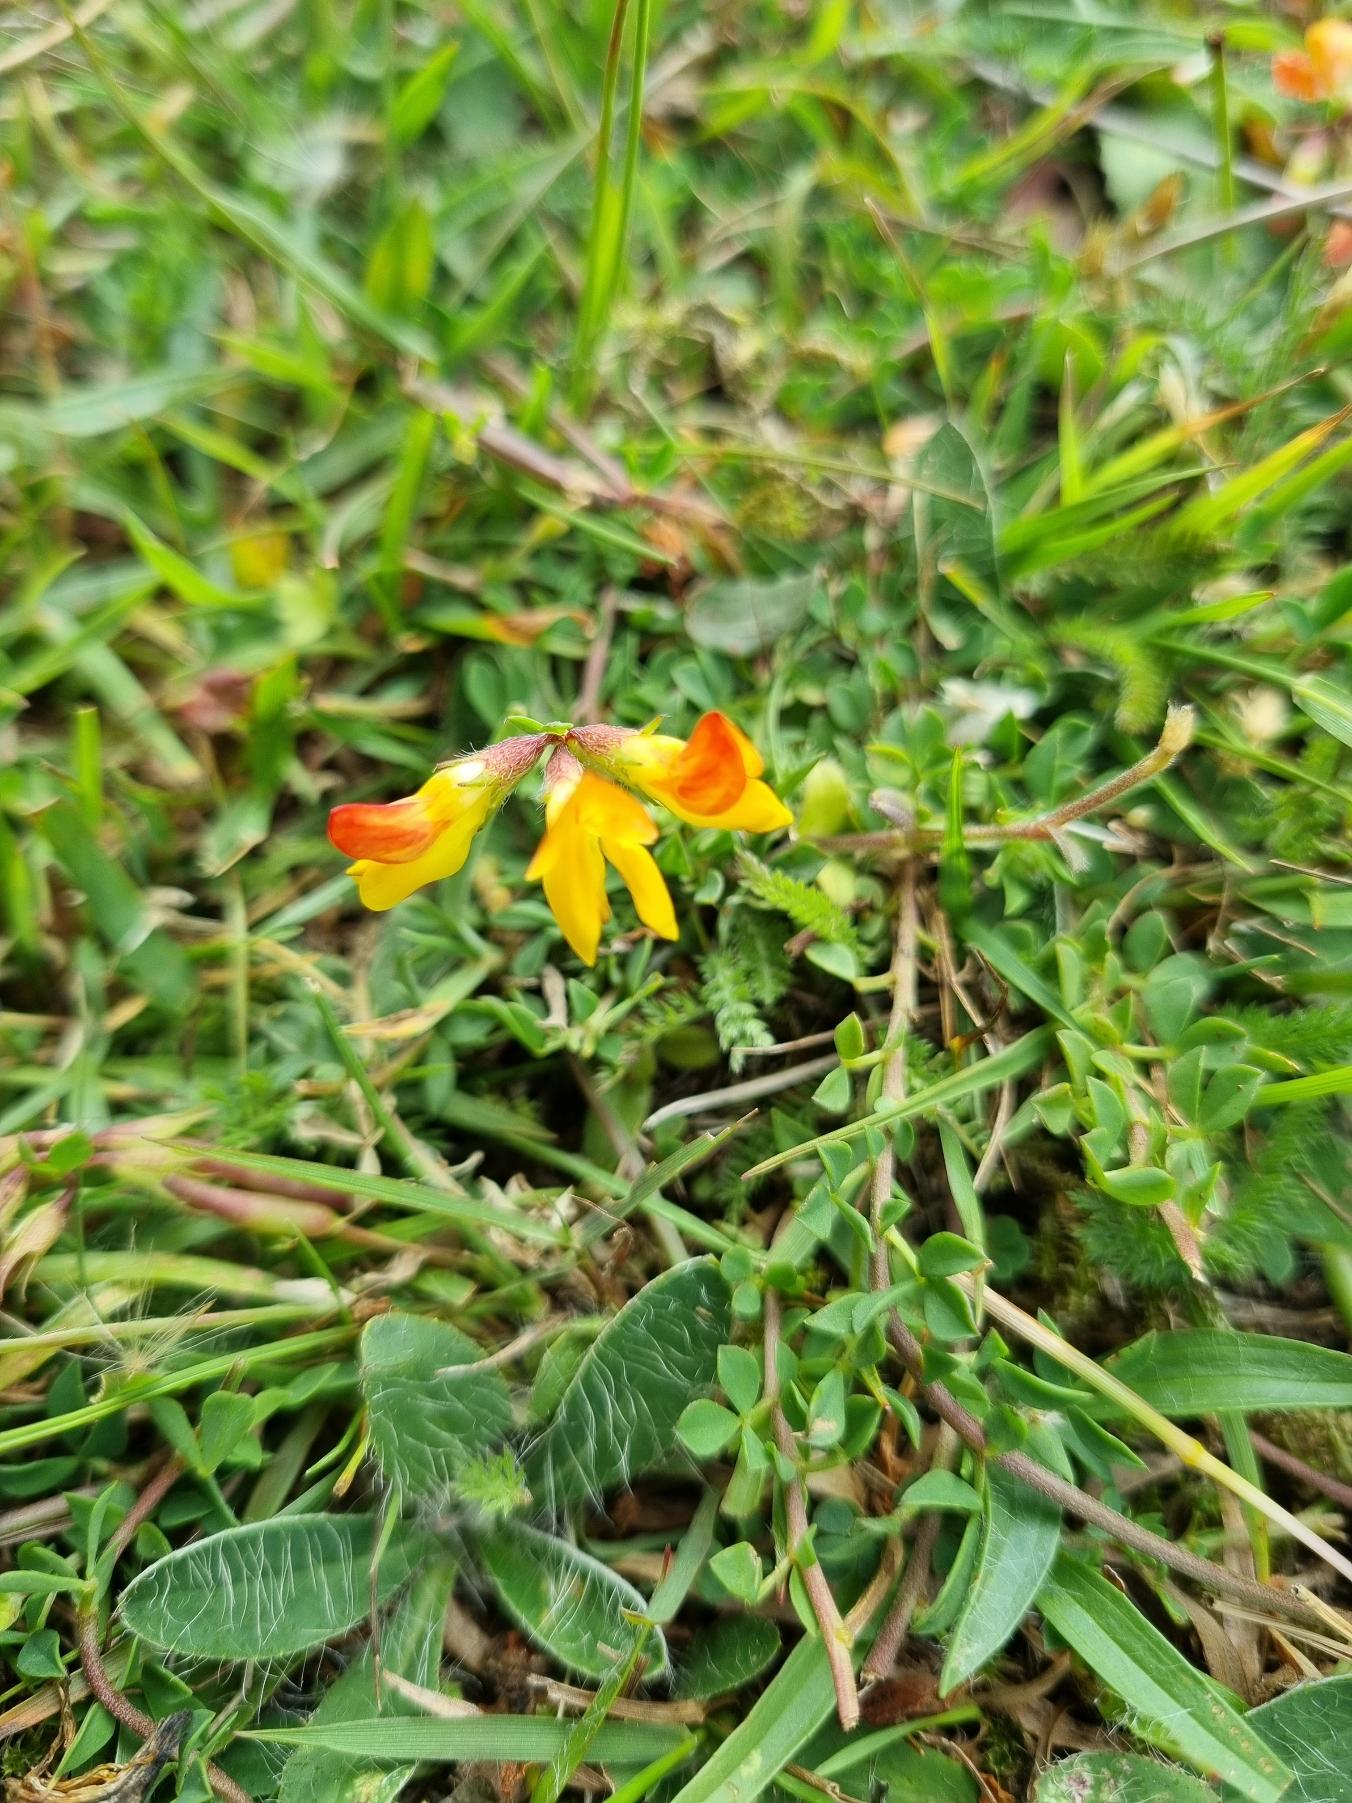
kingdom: Plantae
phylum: Tracheophyta
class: Magnoliopsida
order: Fabales
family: Fabaceae
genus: Lotus
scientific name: Lotus corniculatus
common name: Almindelig kællingetand
